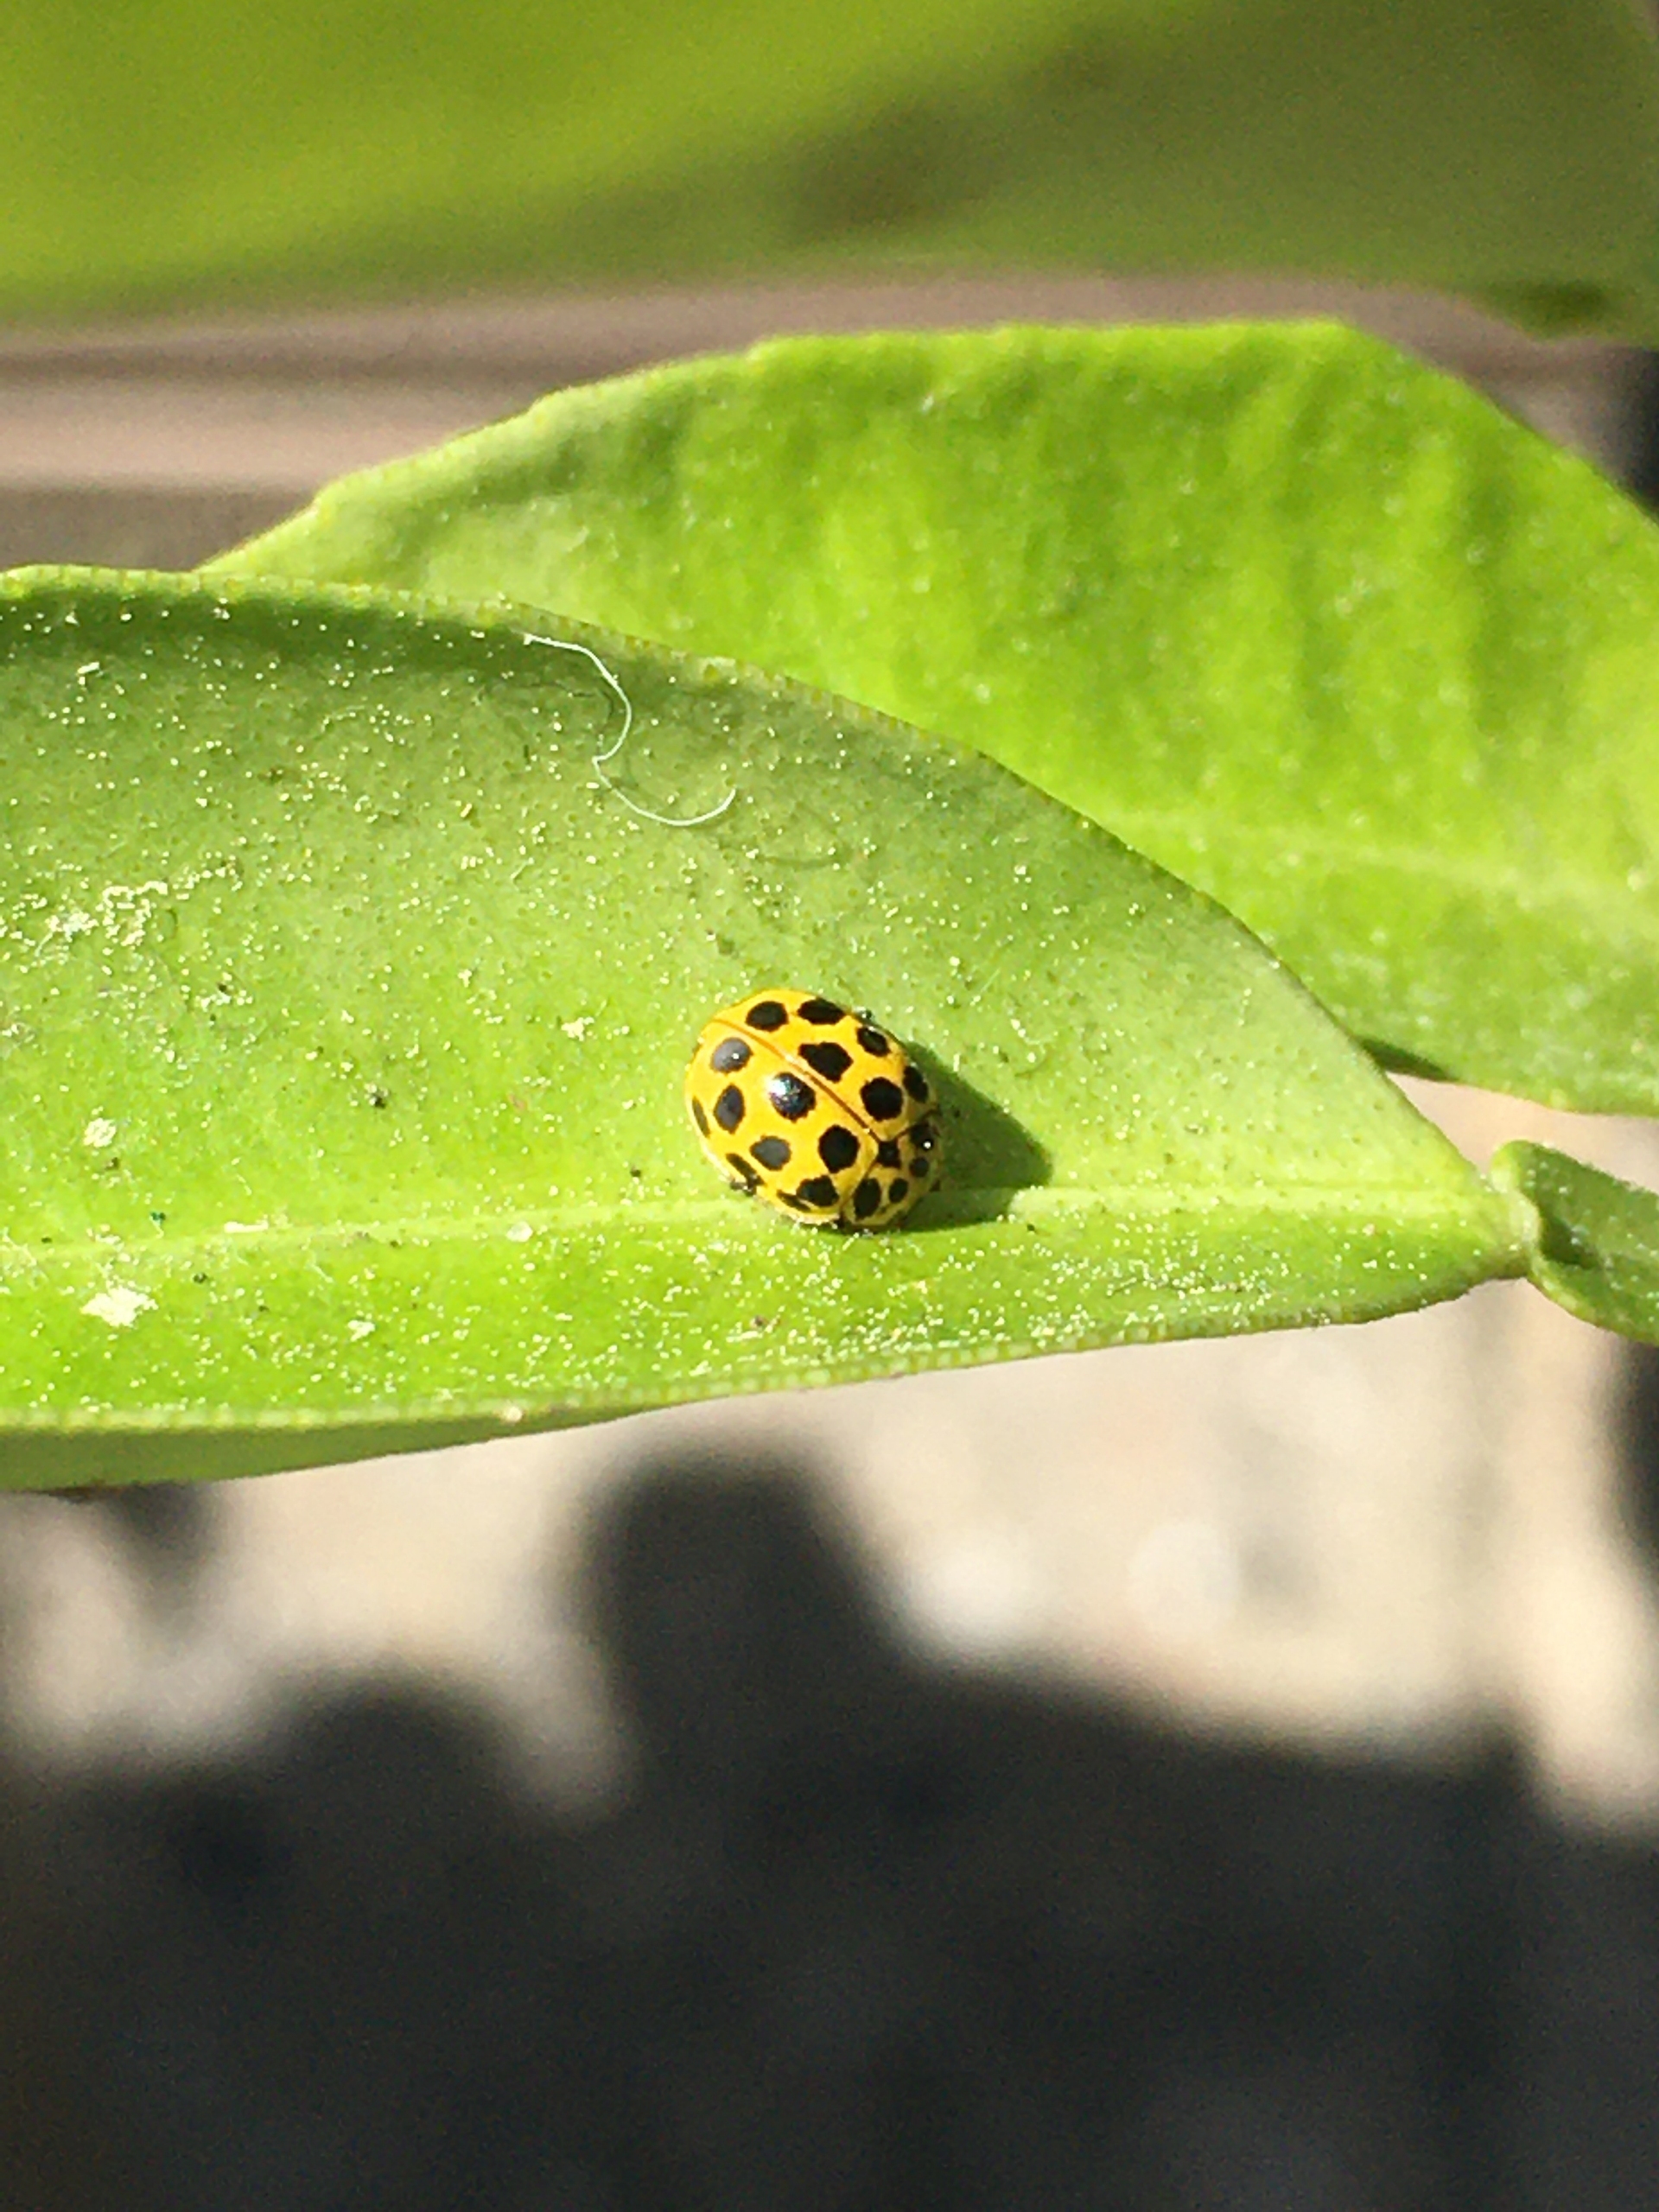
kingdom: Animalia
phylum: Arthropoda
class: Insecta
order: Coleoptera
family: Coccinellidae
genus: Psyllobora
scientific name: Psyllobora vigintiduopunctata
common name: Toogtyveplettet mariehøne
